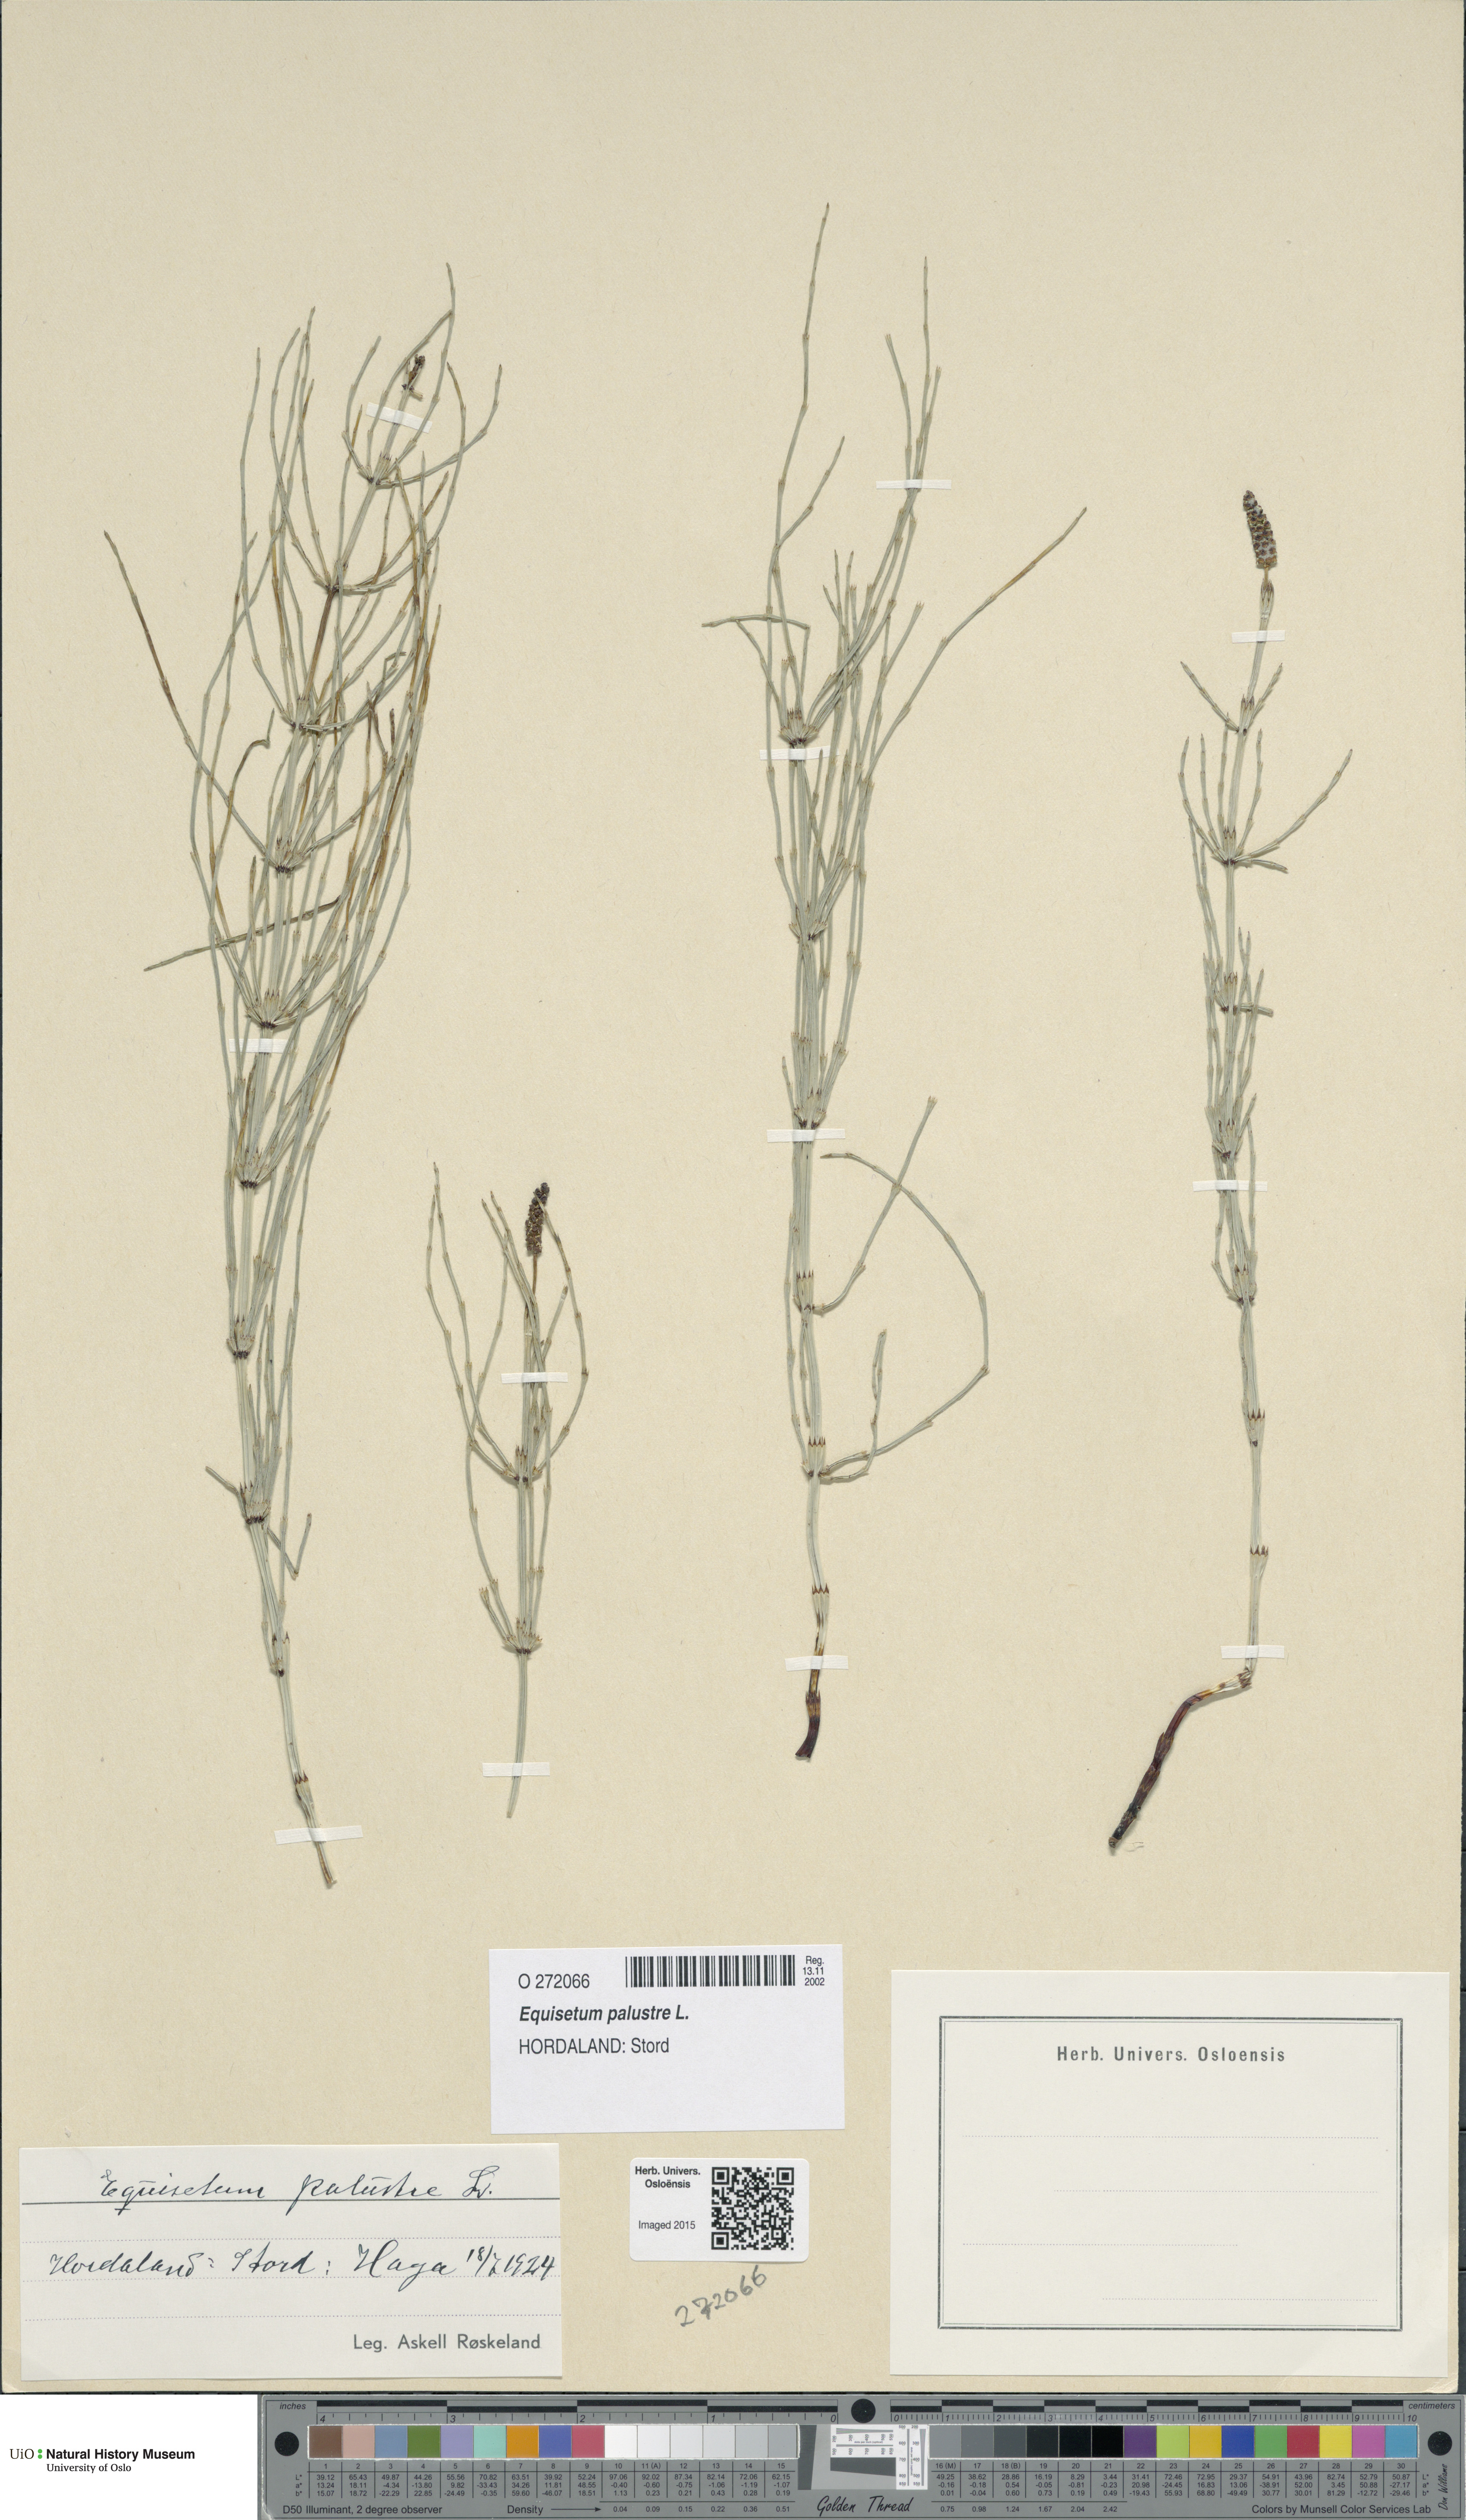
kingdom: Plantae
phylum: Tracheophyta
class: Polypodiopsida
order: Equisetales
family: Equisetaceae
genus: Equisetum
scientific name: Equisetum palustre
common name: Marsh horsetail
